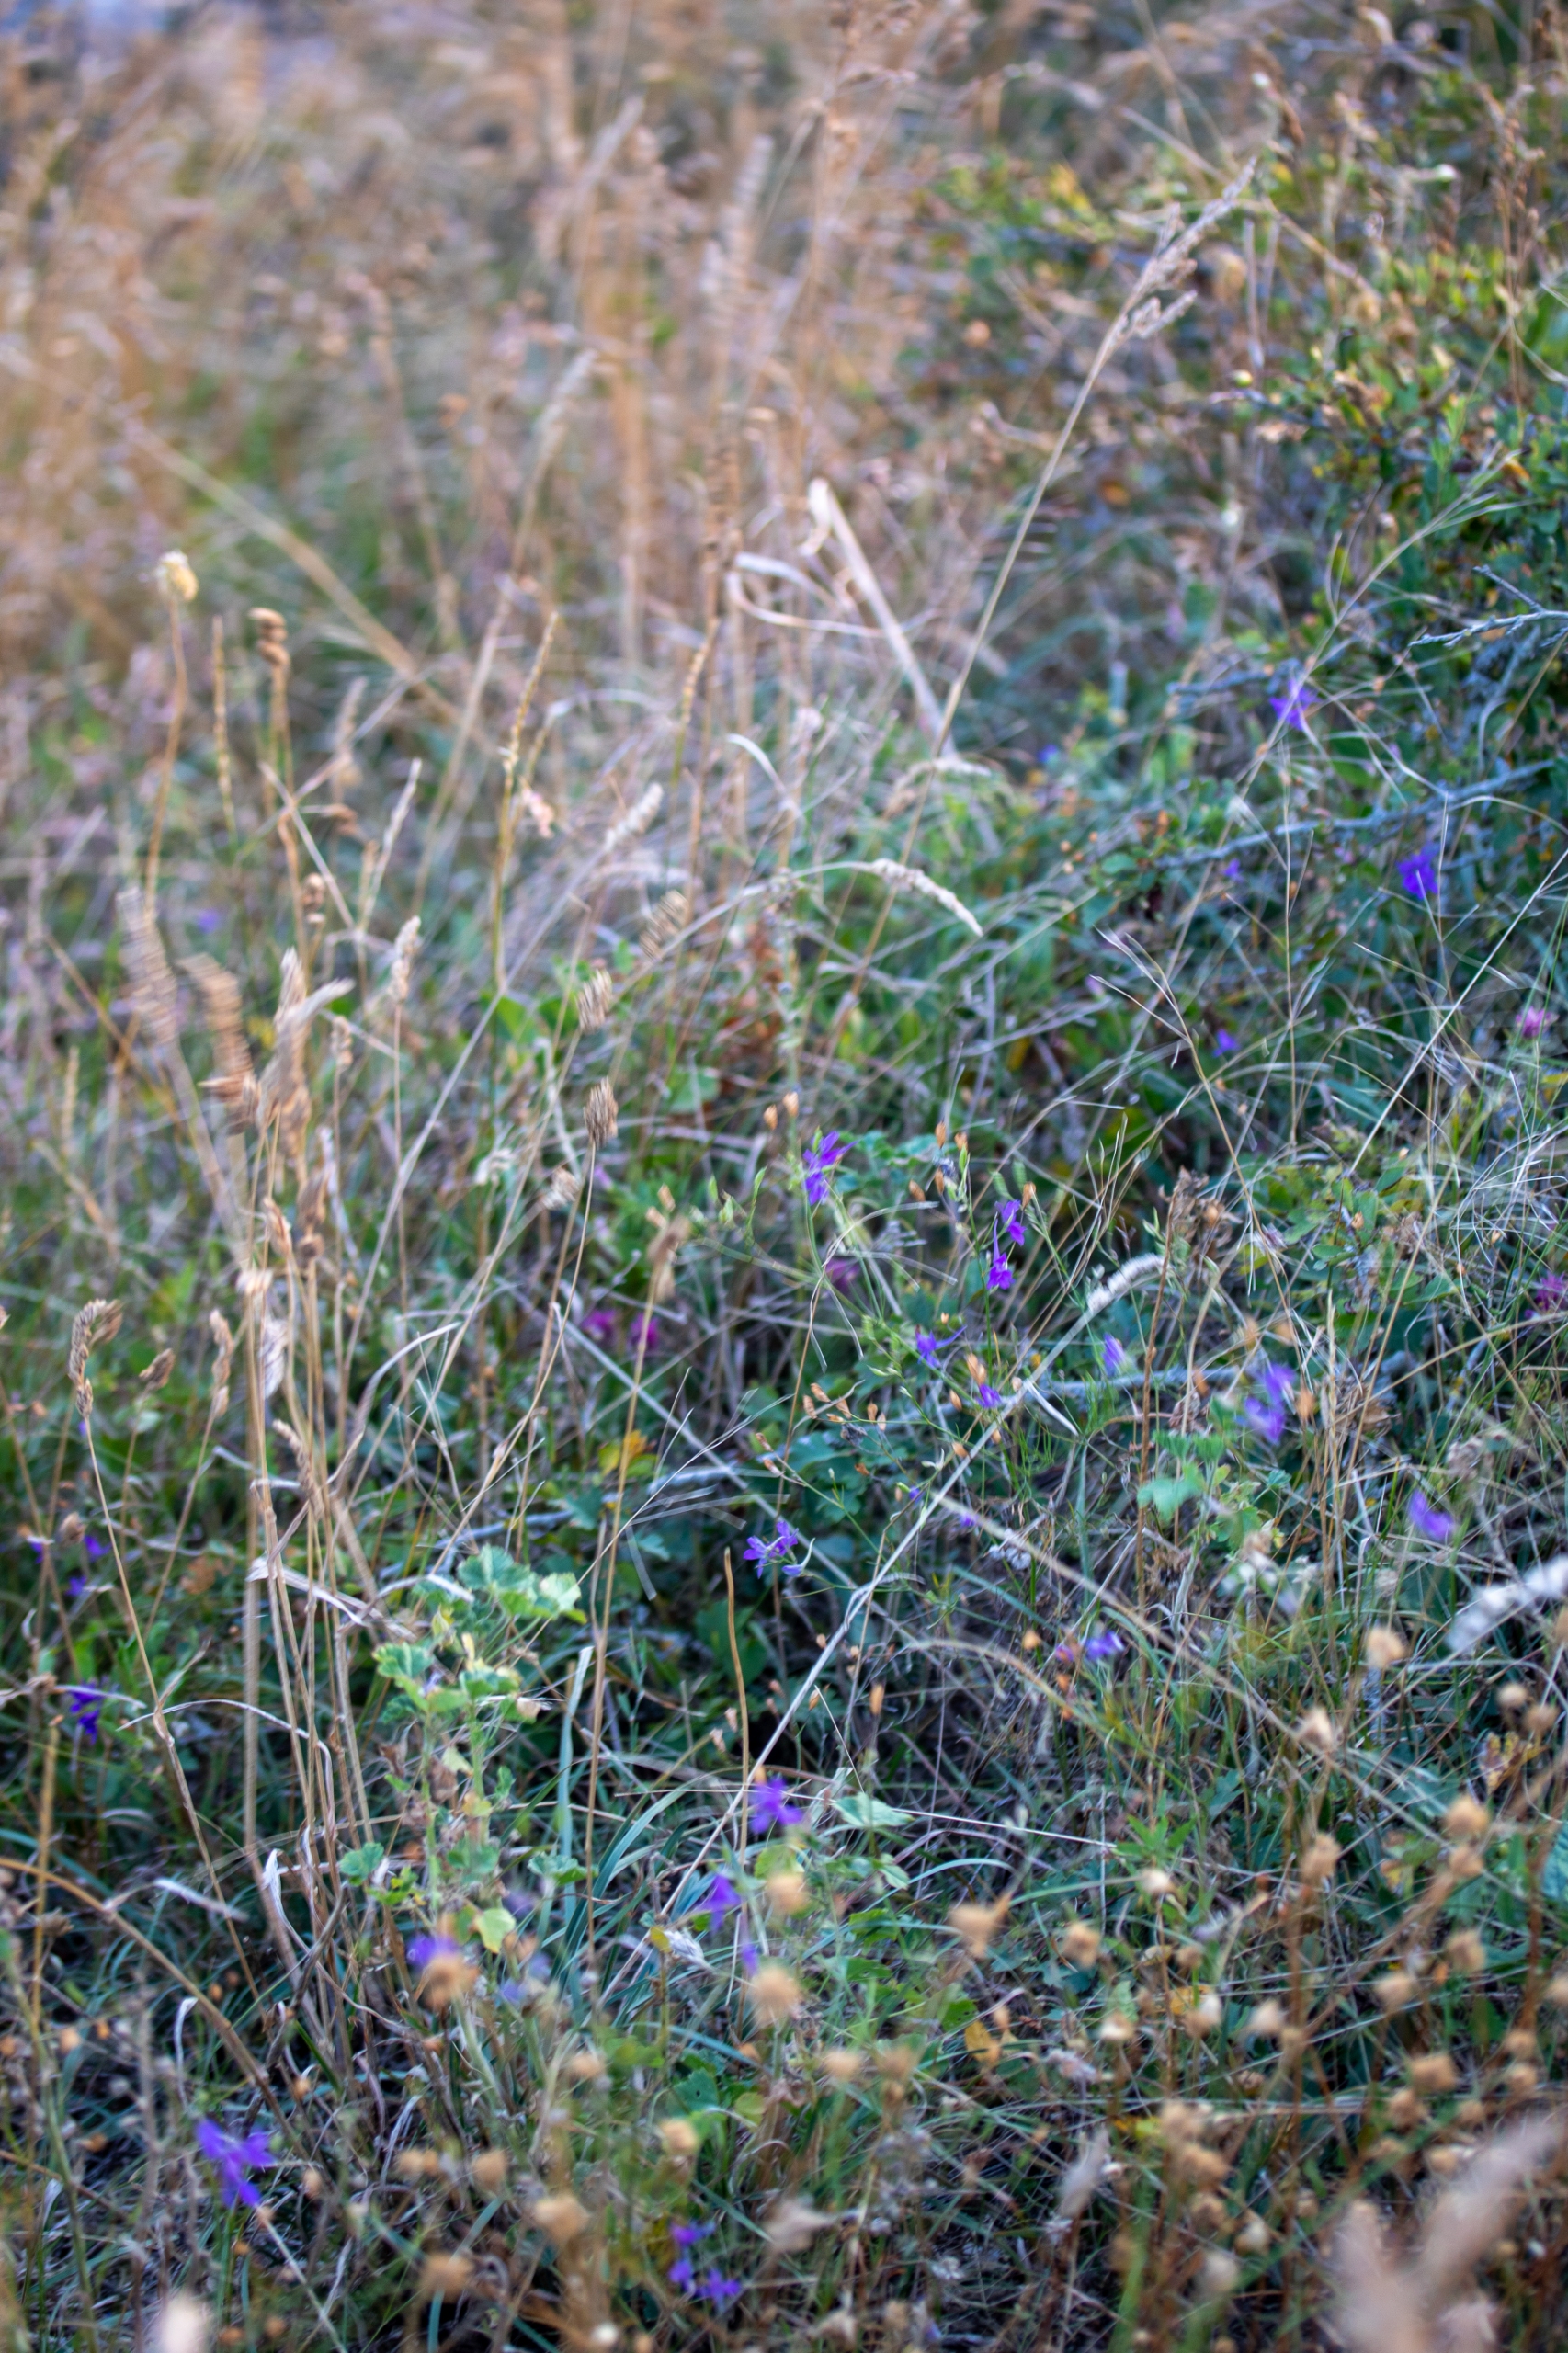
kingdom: Plantae
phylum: Tracheophyta
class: Magnoliopsida
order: Ranunculales
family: Ranunculaceae
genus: Delphinium
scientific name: Delphinium consolida
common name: Korn-ridderspore
